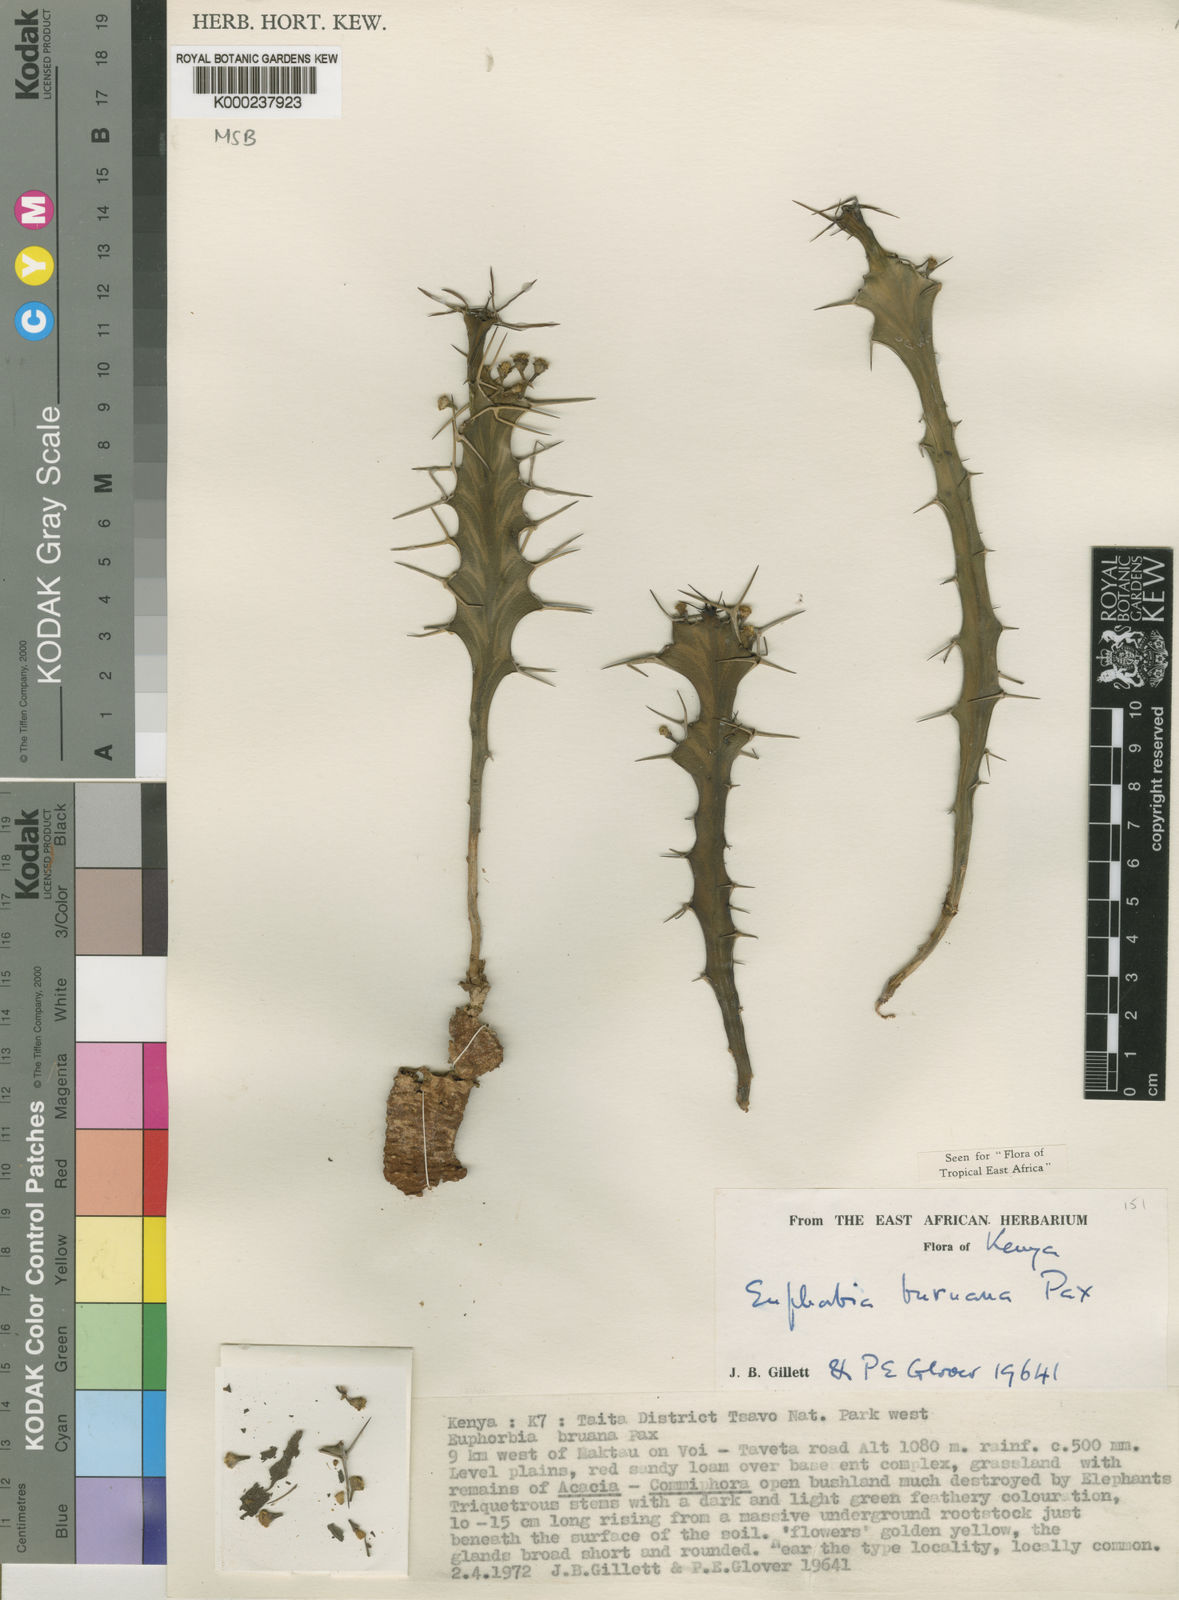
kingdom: Plantae
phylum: Tracheophyta
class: Magnoliopsida
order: Malpighiales
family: Euphorbiaceae
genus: Euphorbia
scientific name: Euphorbia buruana
